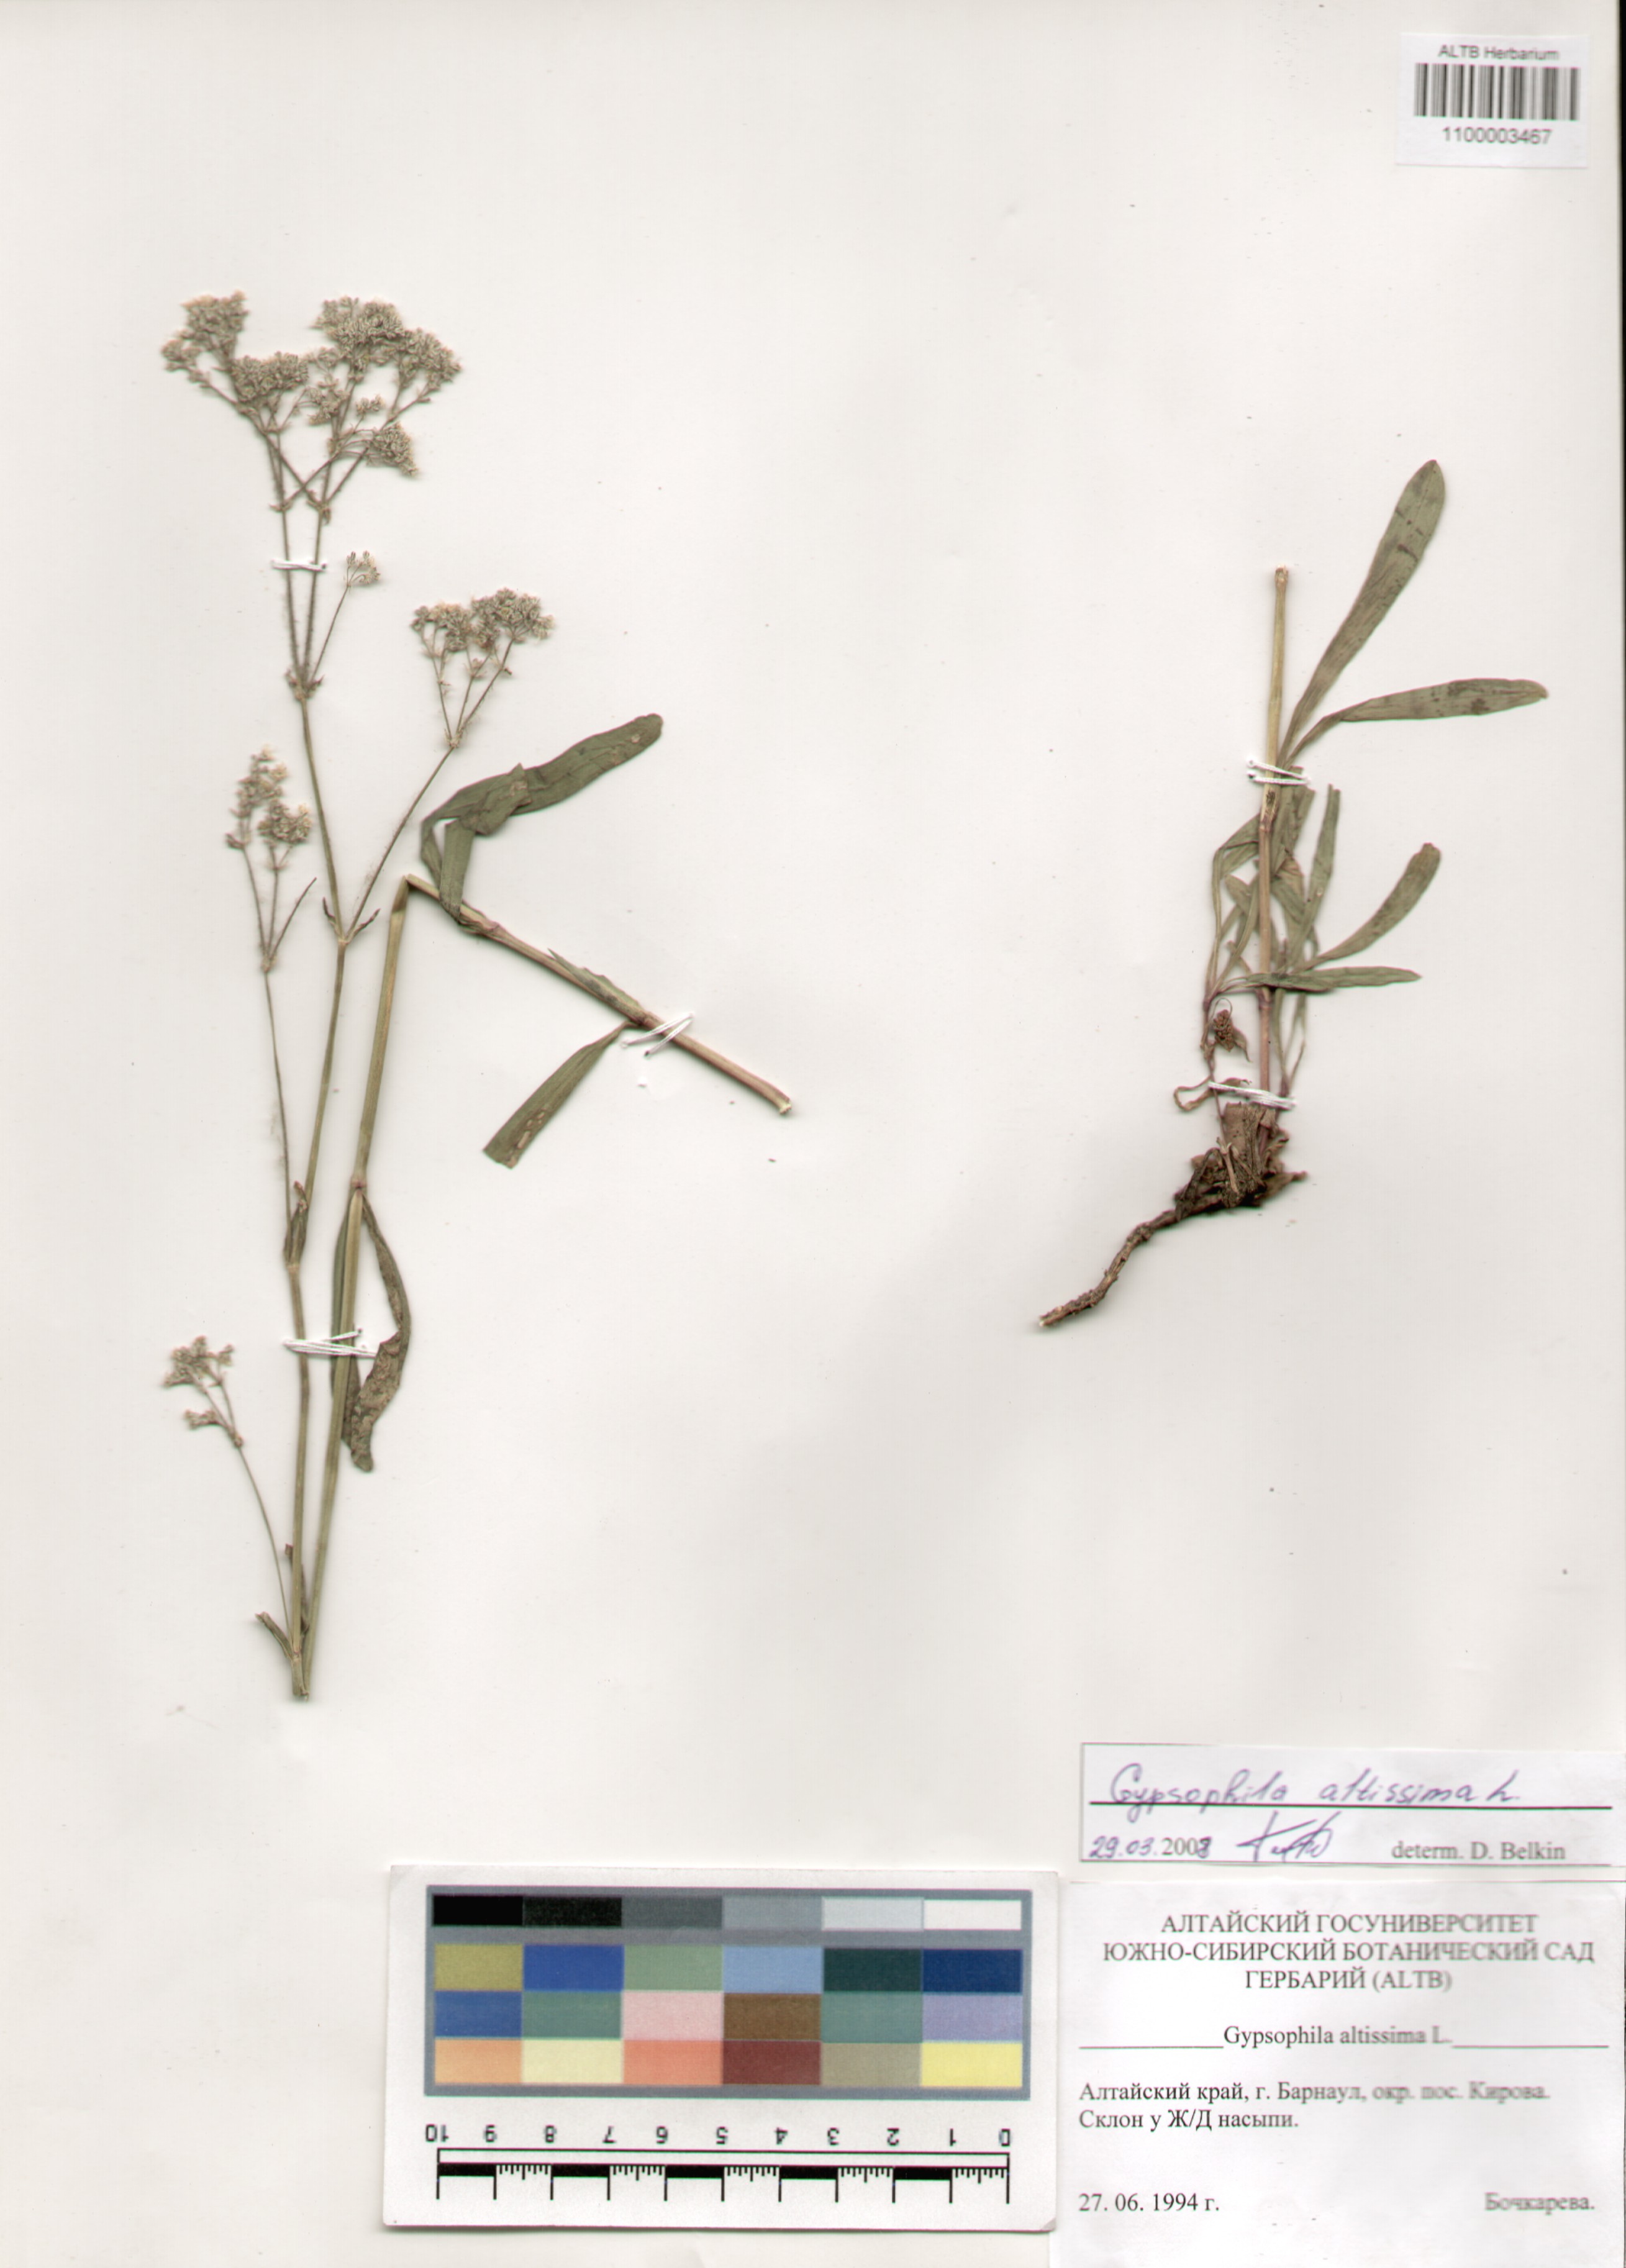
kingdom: Plantae
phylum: Tracheophyta
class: Magnoliopsida
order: Caryophyllales
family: Caryophyllaceae
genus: Gypsophila
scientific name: Gypsophila altissima
